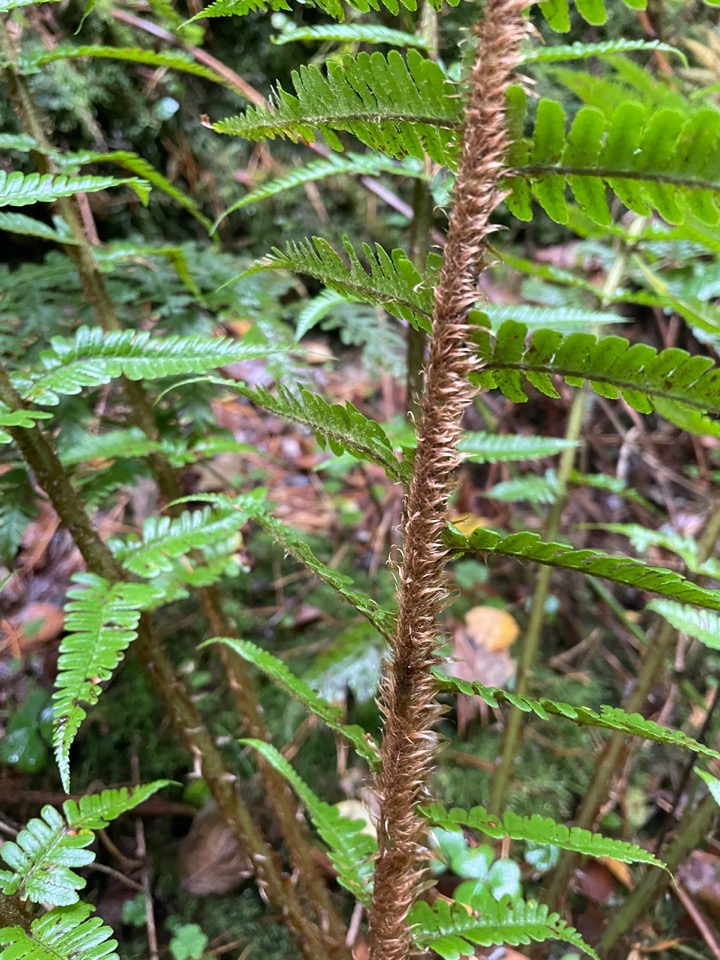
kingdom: Plantae
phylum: Tracheophyta
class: Polypodiopsida
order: Polypodiales
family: Dryopteridaceae
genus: Dryopteris
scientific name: Dryopteris affinis
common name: Guldskæl-mangeløv
